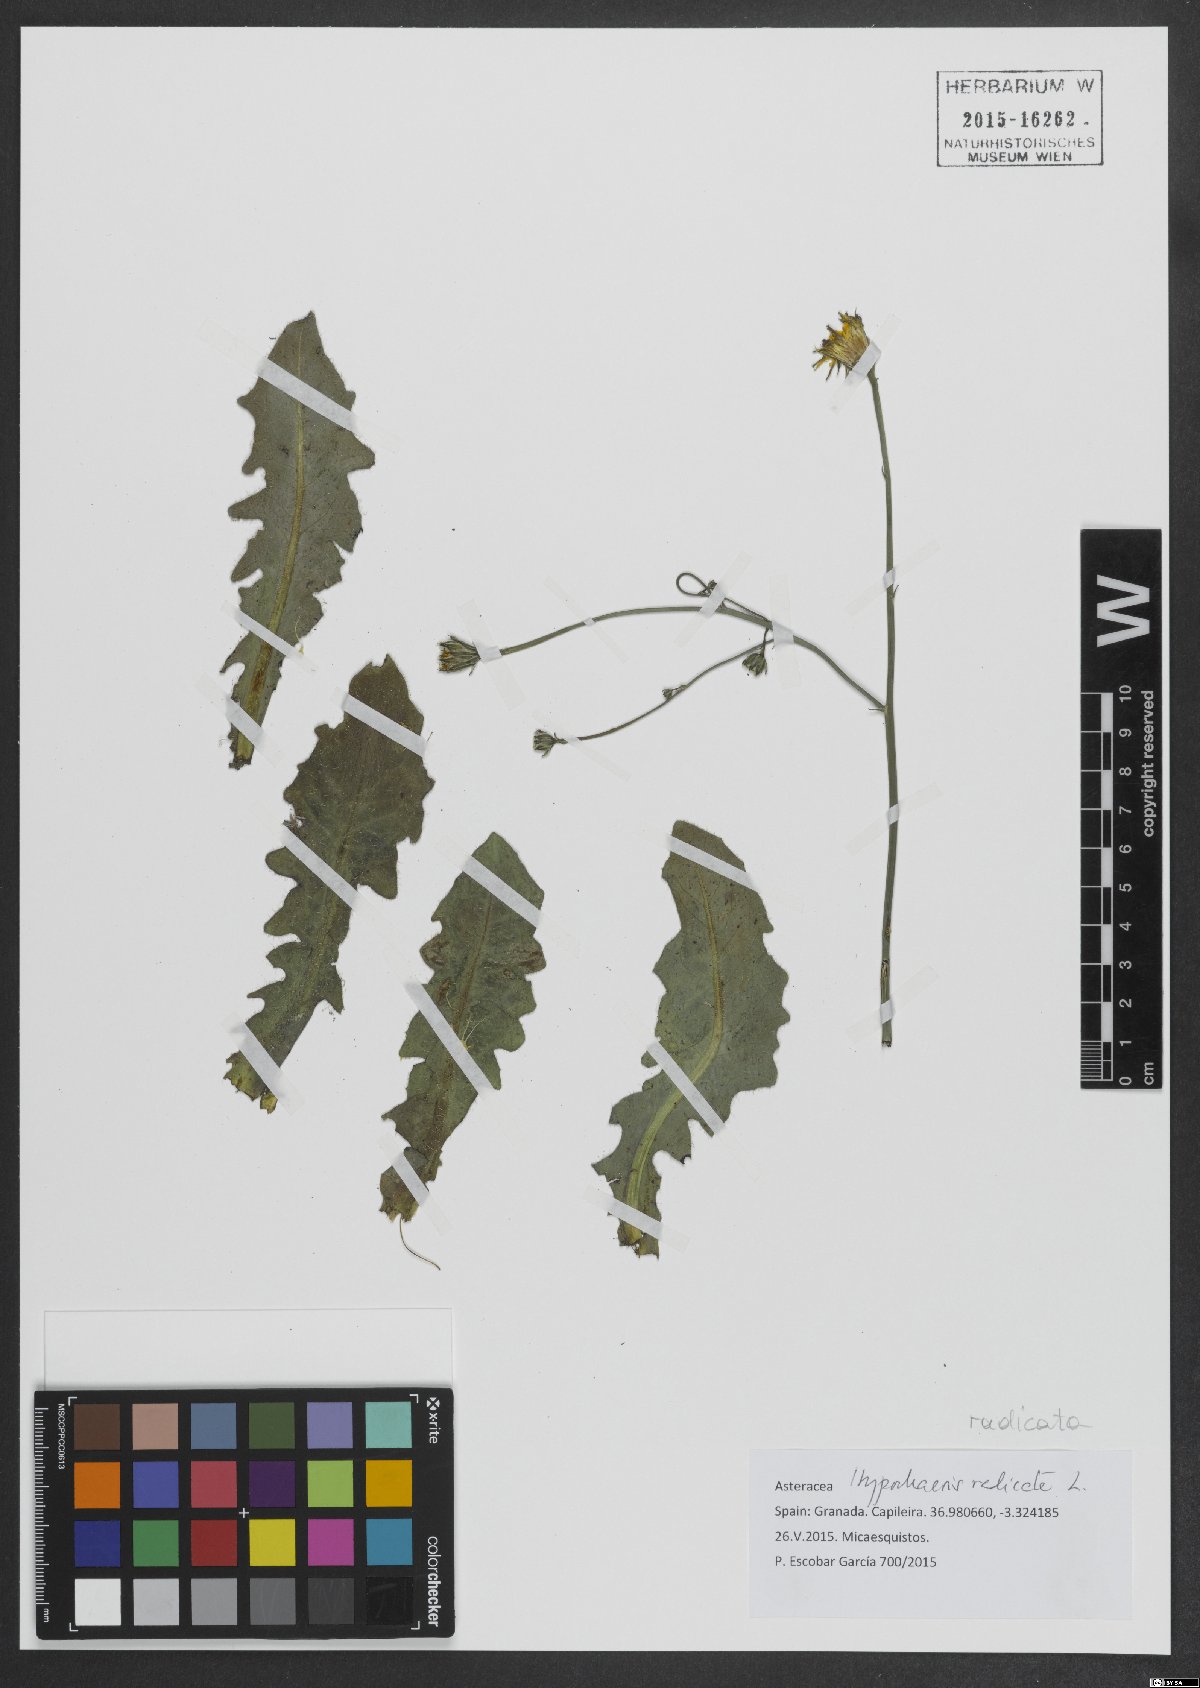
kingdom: Plantae
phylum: Tracheophyta
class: Magnoliopsida
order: Asterales
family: Asteraceae
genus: Hypochaeris
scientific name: Hypochaeris radicata
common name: Flatweed
